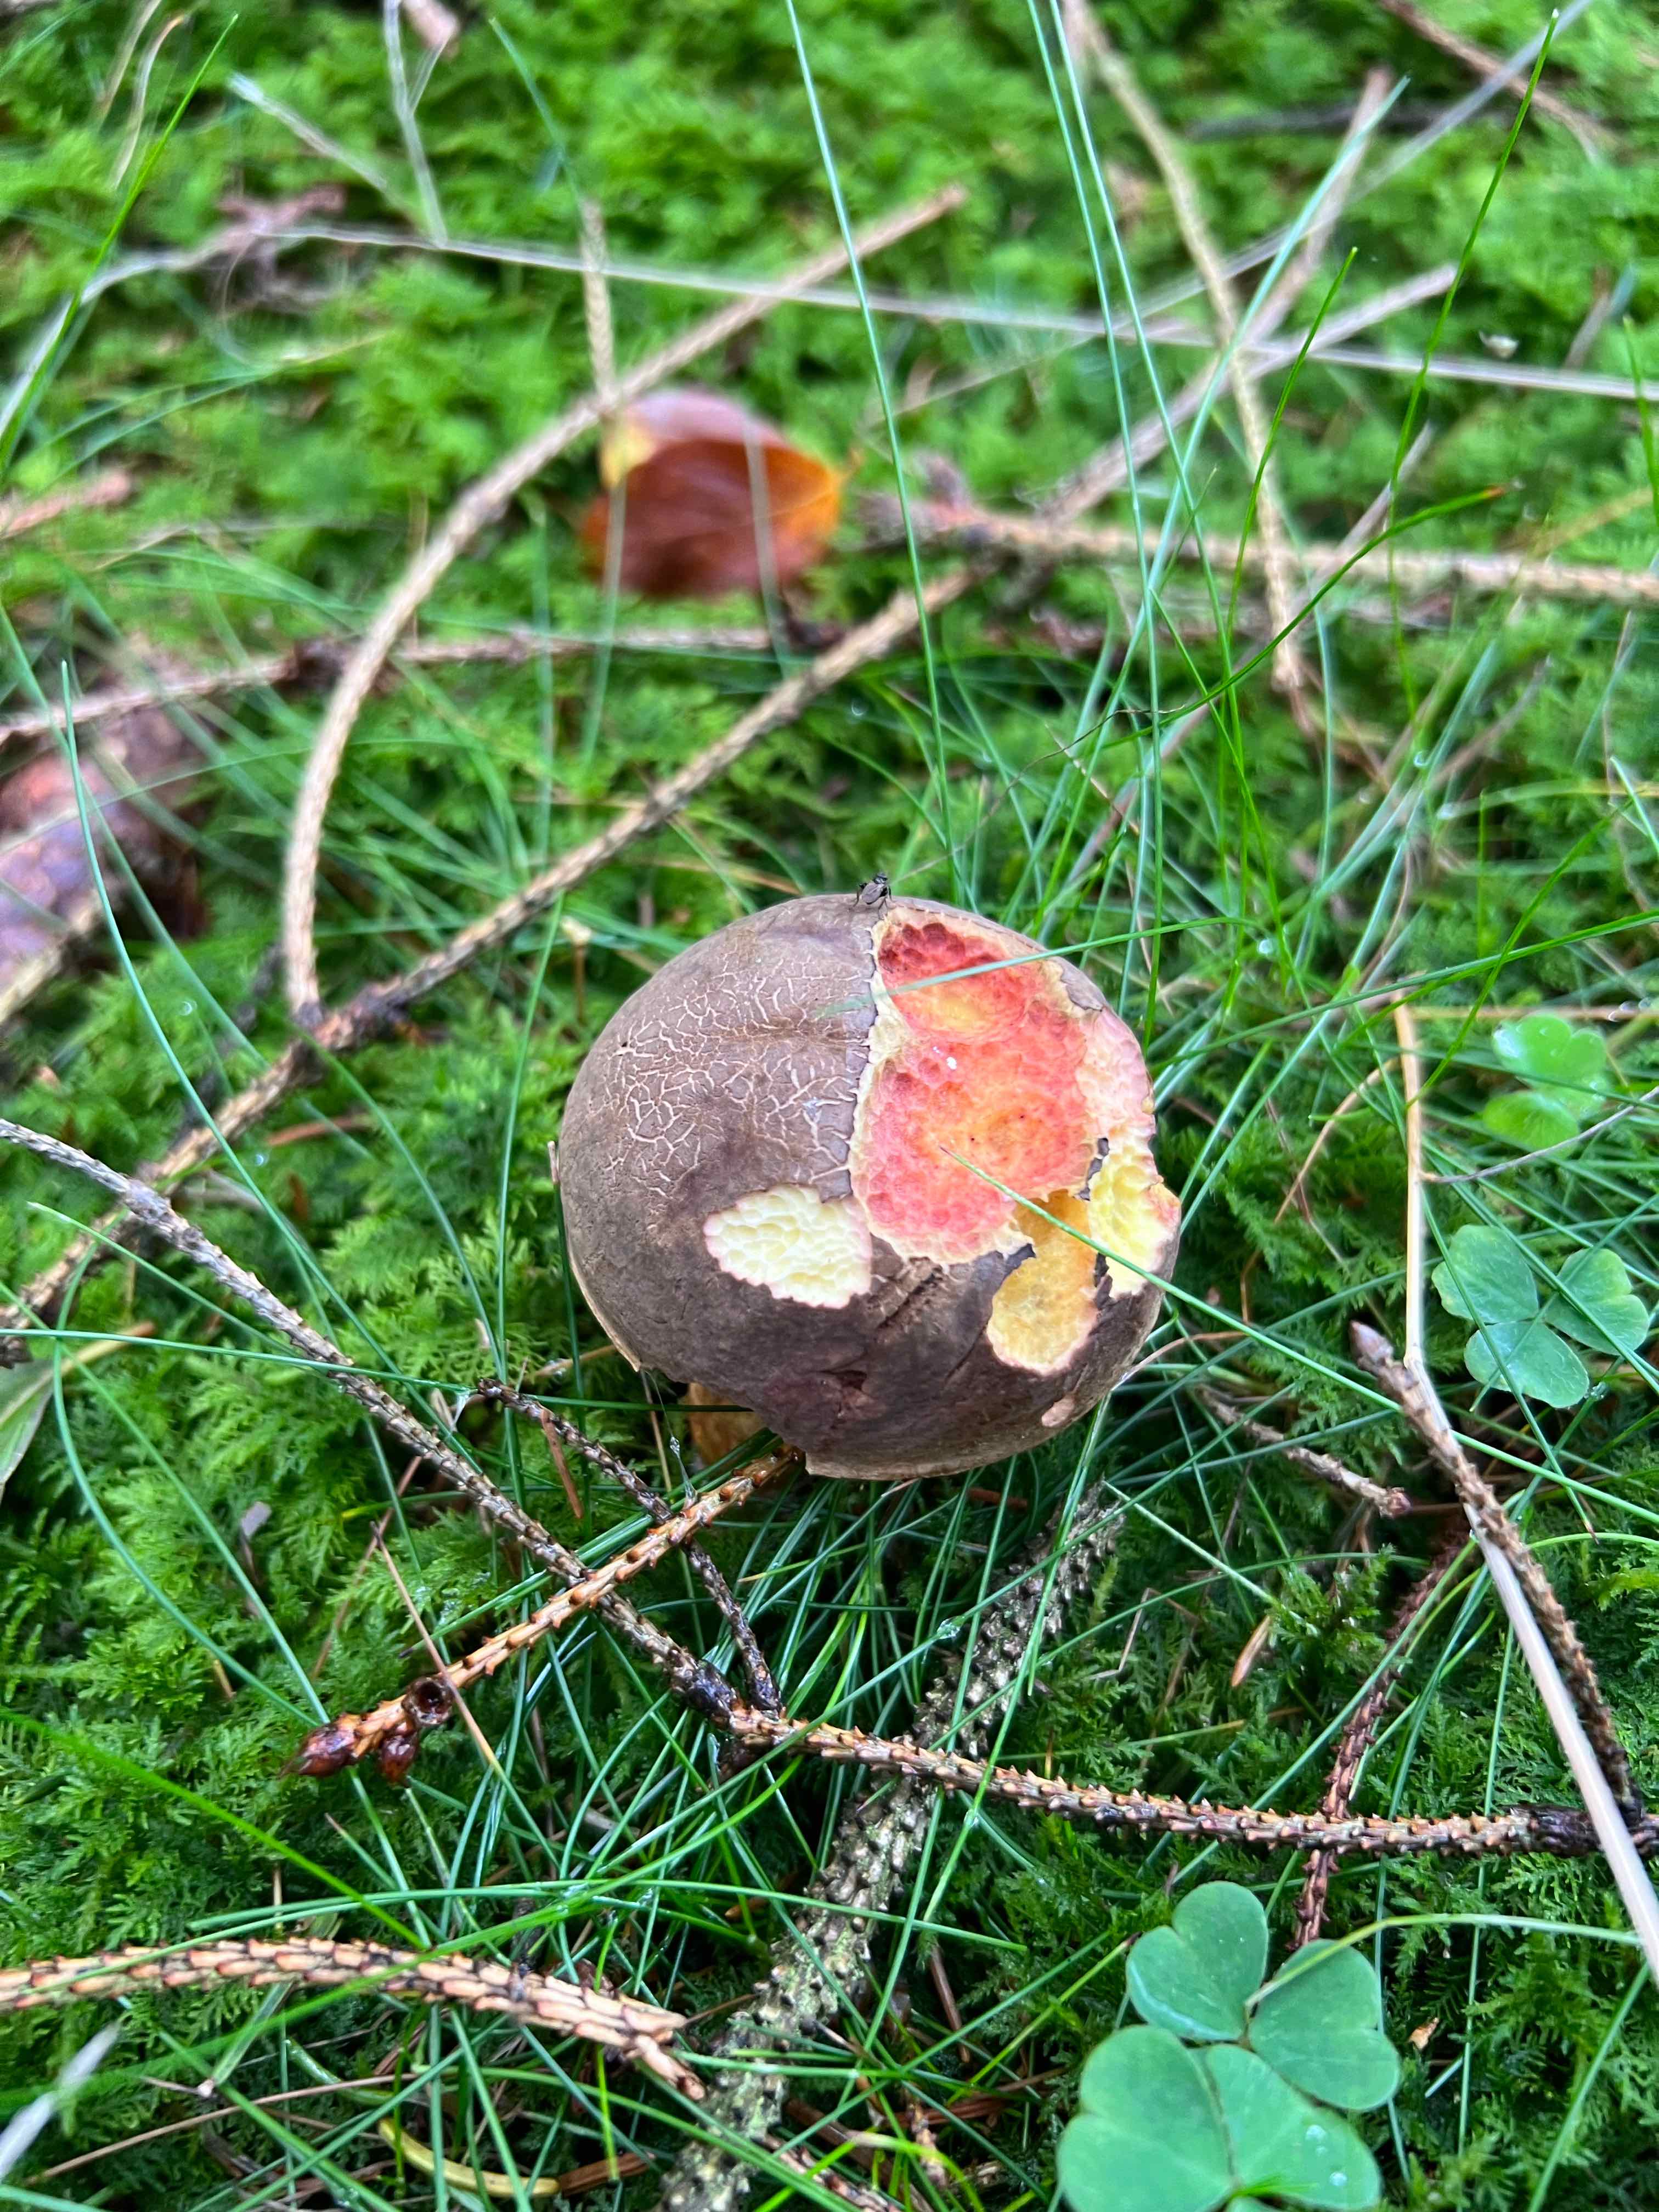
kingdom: Fungi
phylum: Basidiomycota
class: Agaricomycetes
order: Boletales
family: Boletaceae
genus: Xerocomellus
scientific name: Xerocomellus pruinatus
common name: dugget rørhat
